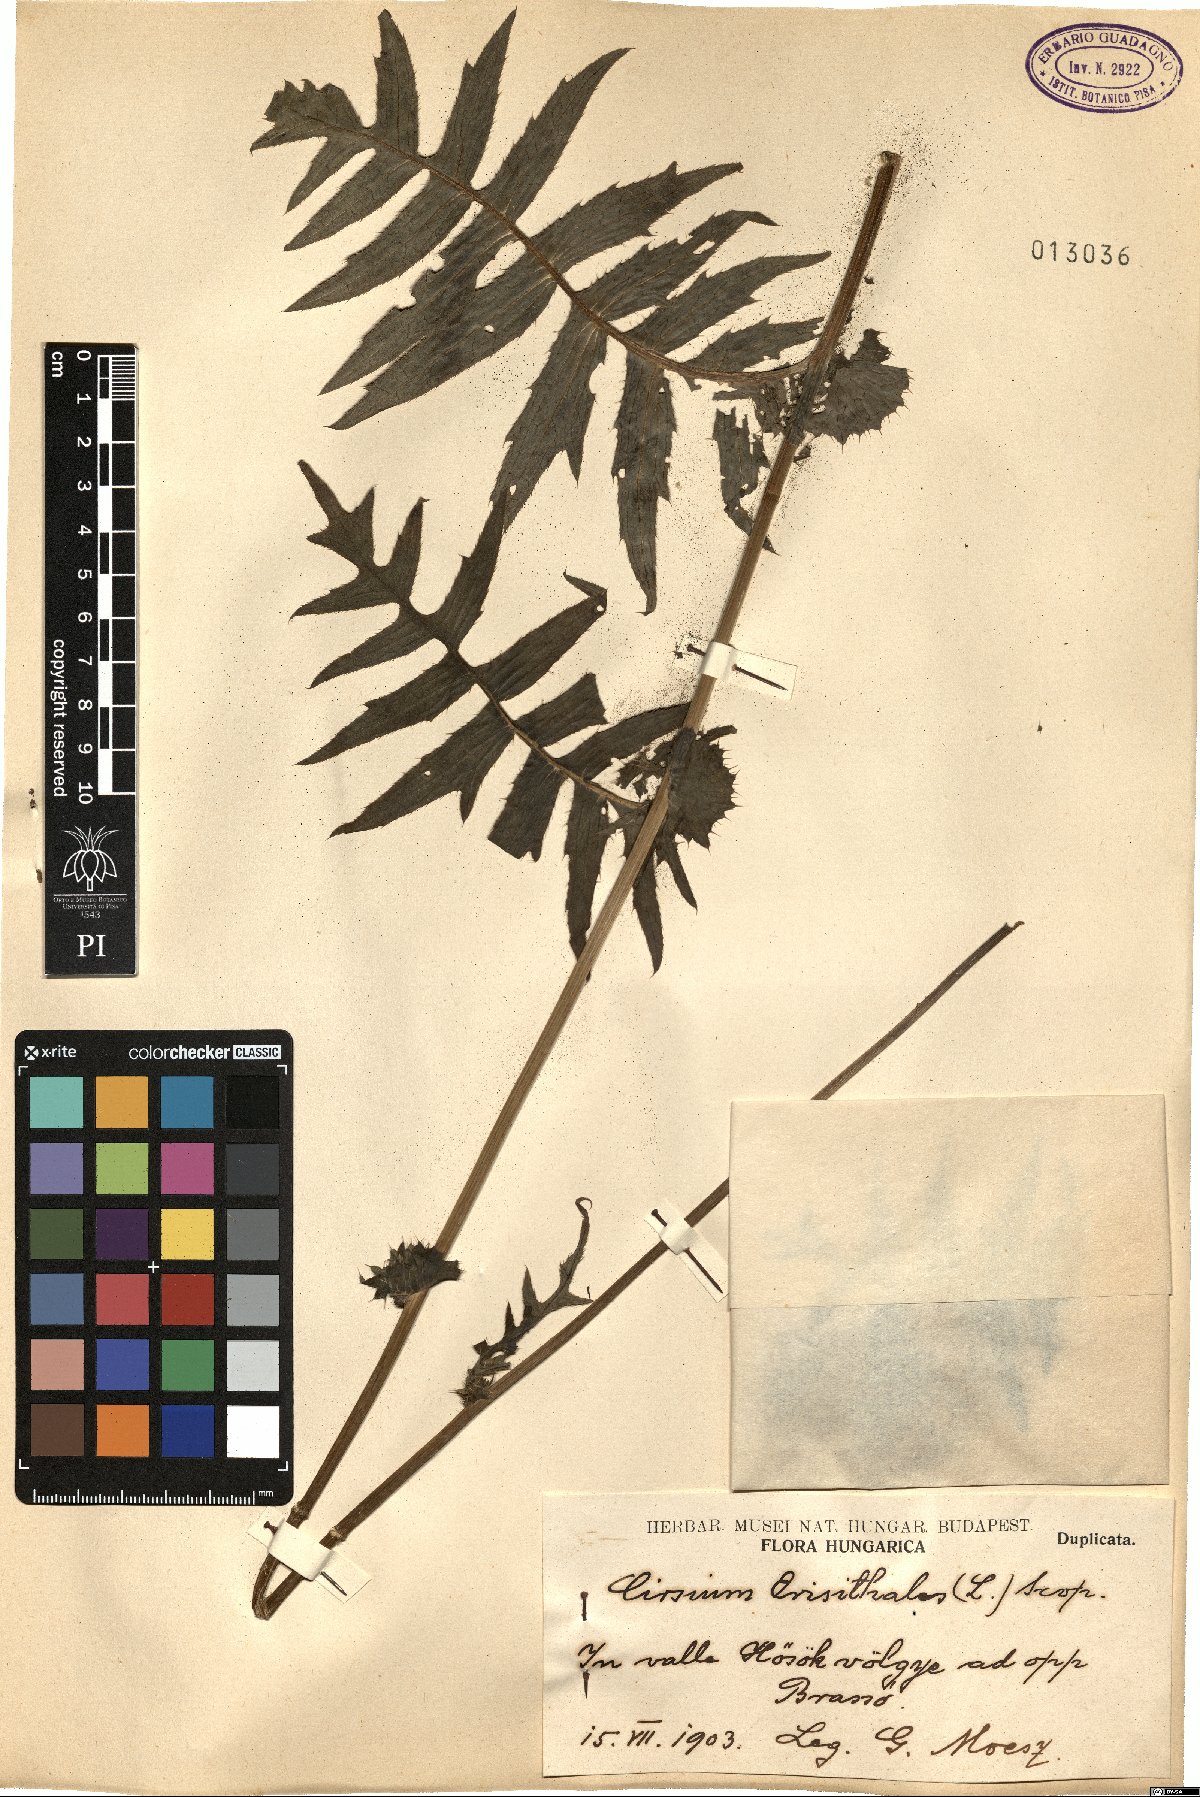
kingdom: Plantae
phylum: Tracheophyta
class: Magnoliopsida
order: Asterales
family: Asteraceae
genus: Cirsium
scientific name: Cirsium erisithales
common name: Yellow thistle
